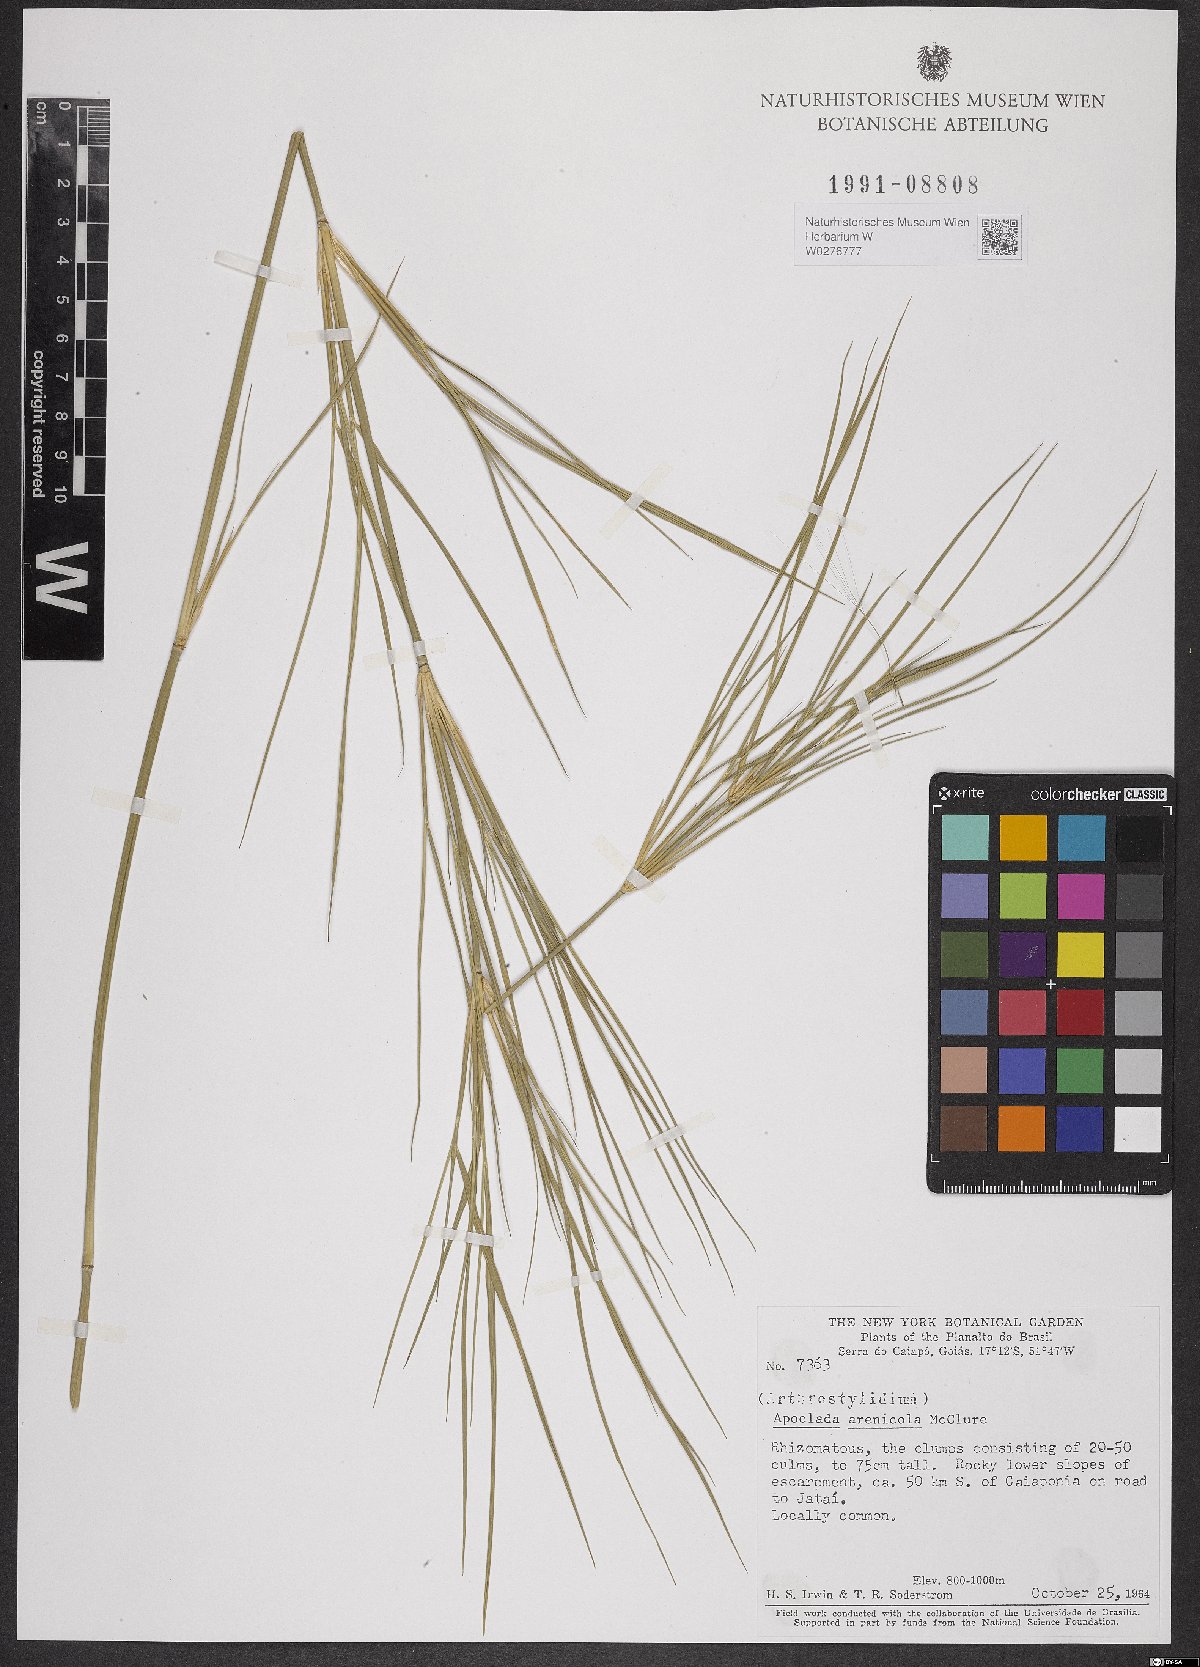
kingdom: Plantae
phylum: Tracheophyta
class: Liliopsida
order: Poales
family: Poaceae
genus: Filgueirasia
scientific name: Filgueirasia arenicola
